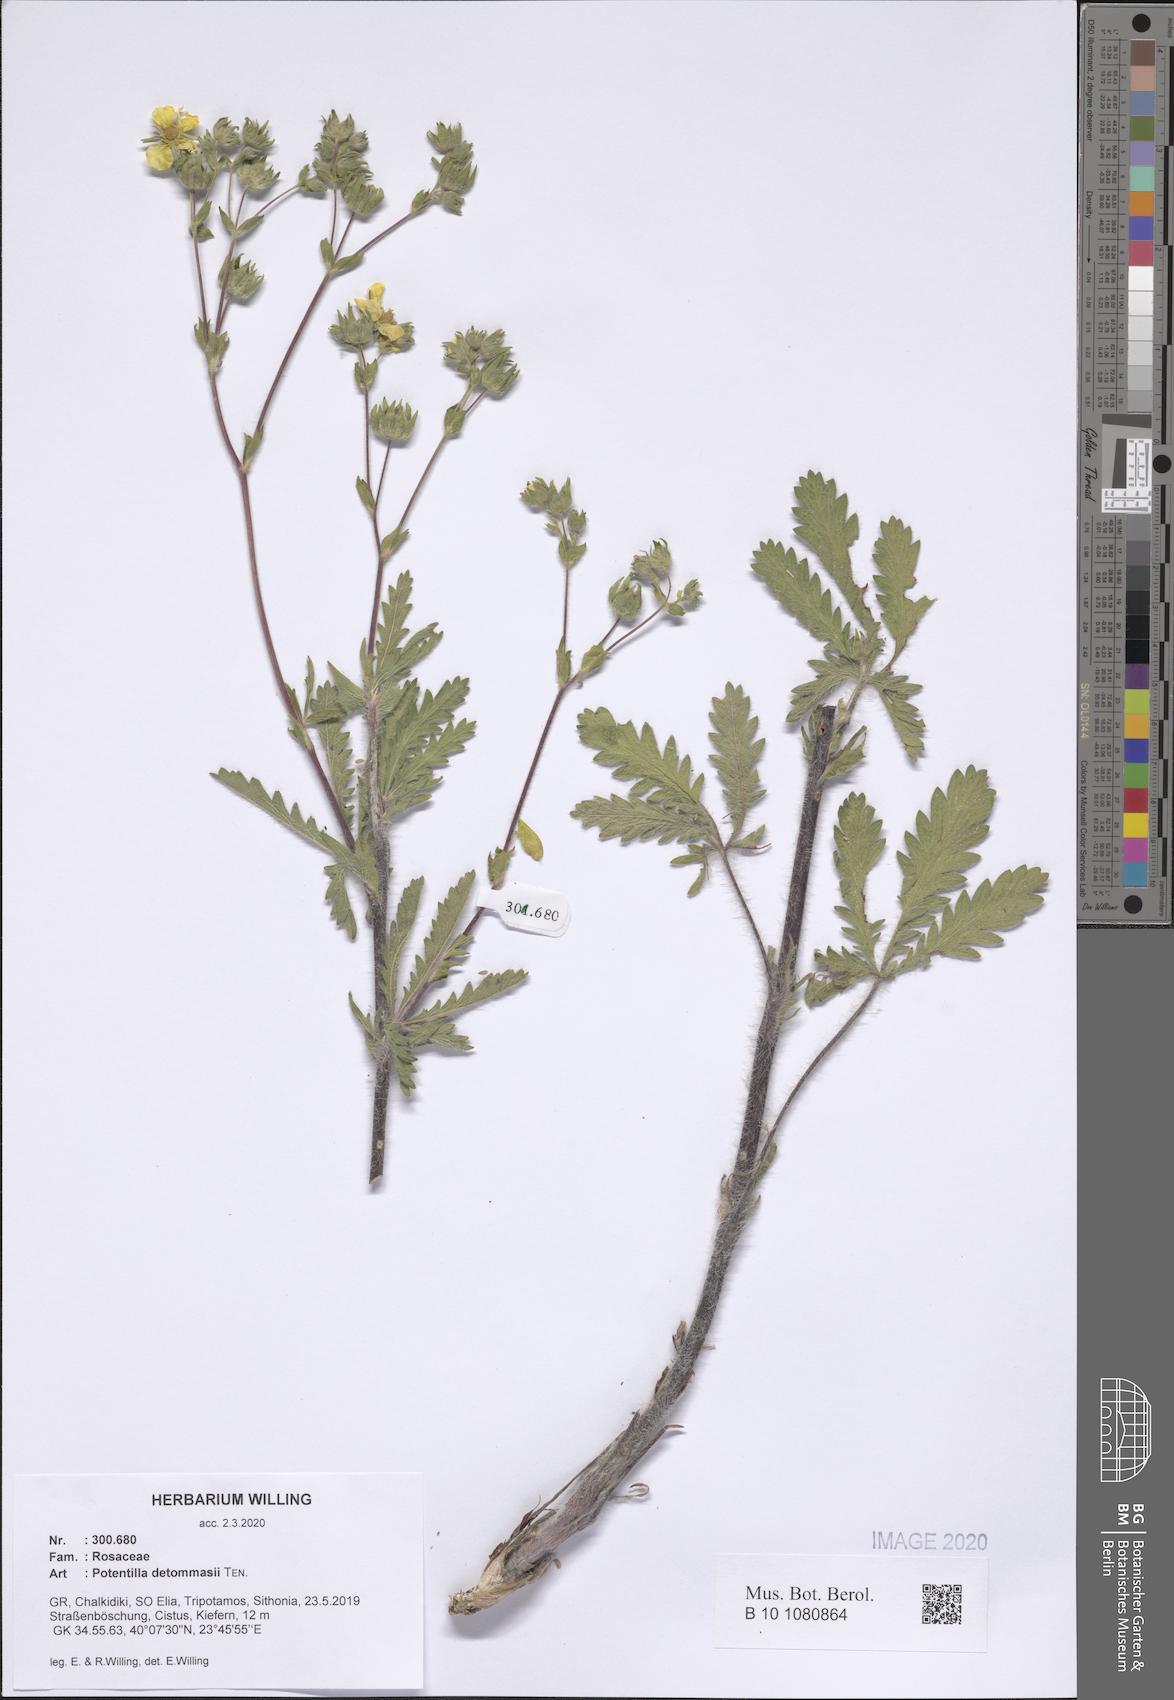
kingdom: Plantae
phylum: Tracheophyta
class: Magnoliopsida
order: Rosales
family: Rosaceae
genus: Potentilla
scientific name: Potentilla detommasii
